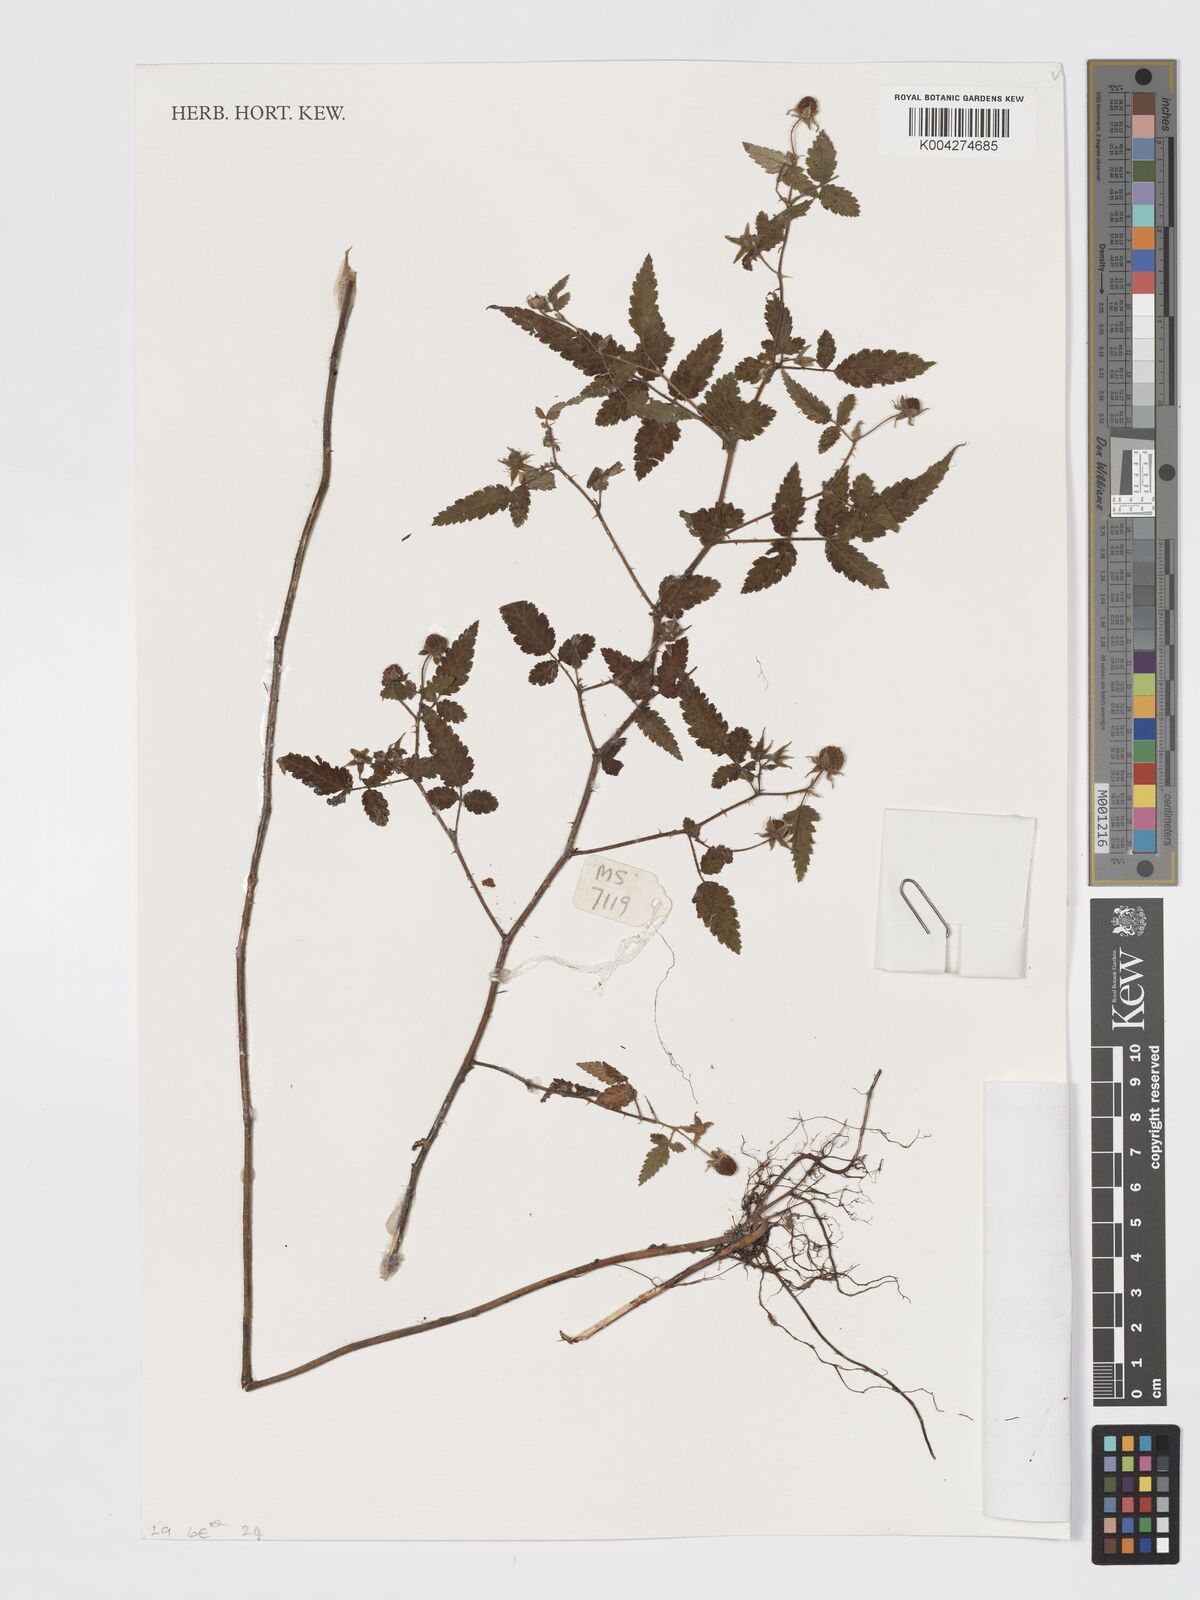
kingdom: Plantae
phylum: Tracheophyta
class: Magnoliopsida
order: Rosales
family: Rosaceae
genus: Rubus
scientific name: Rubus
